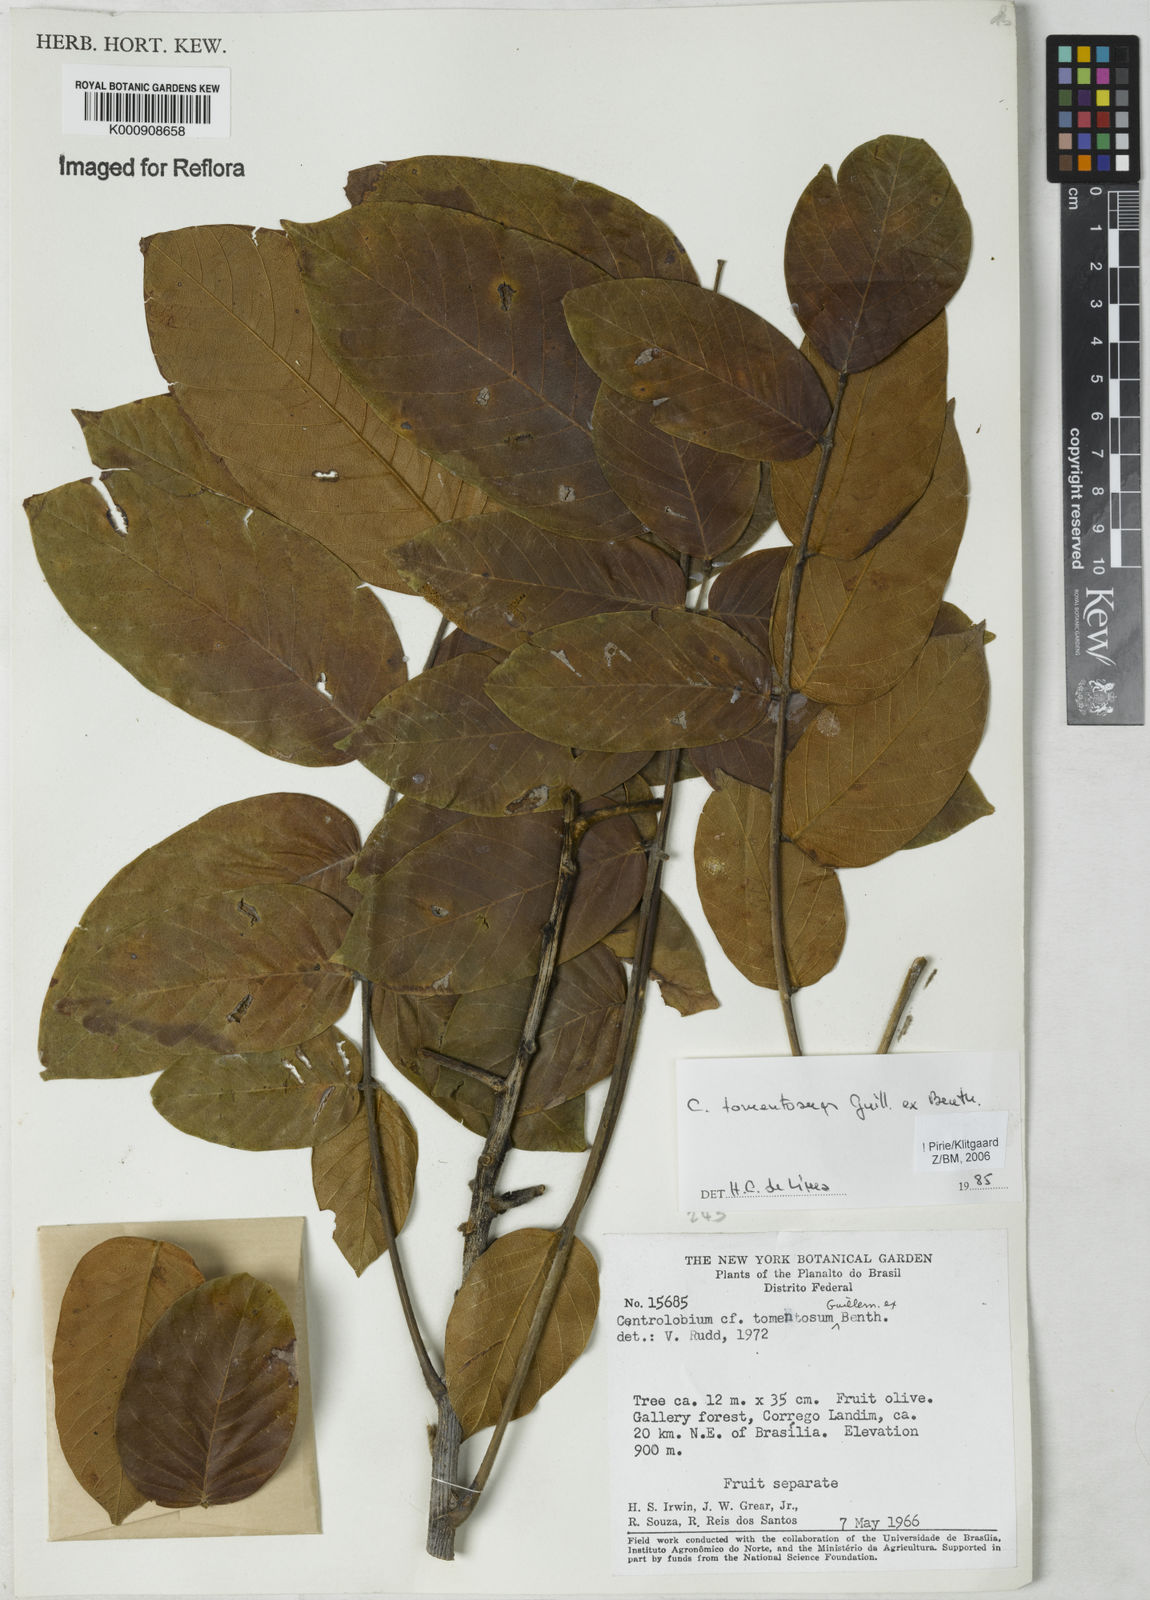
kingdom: Plantae
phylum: Tracheophyta
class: Magnoliopsida
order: Fabales
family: Fabaceae
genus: Centrolobium
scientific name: Centrolobium tomentosum
